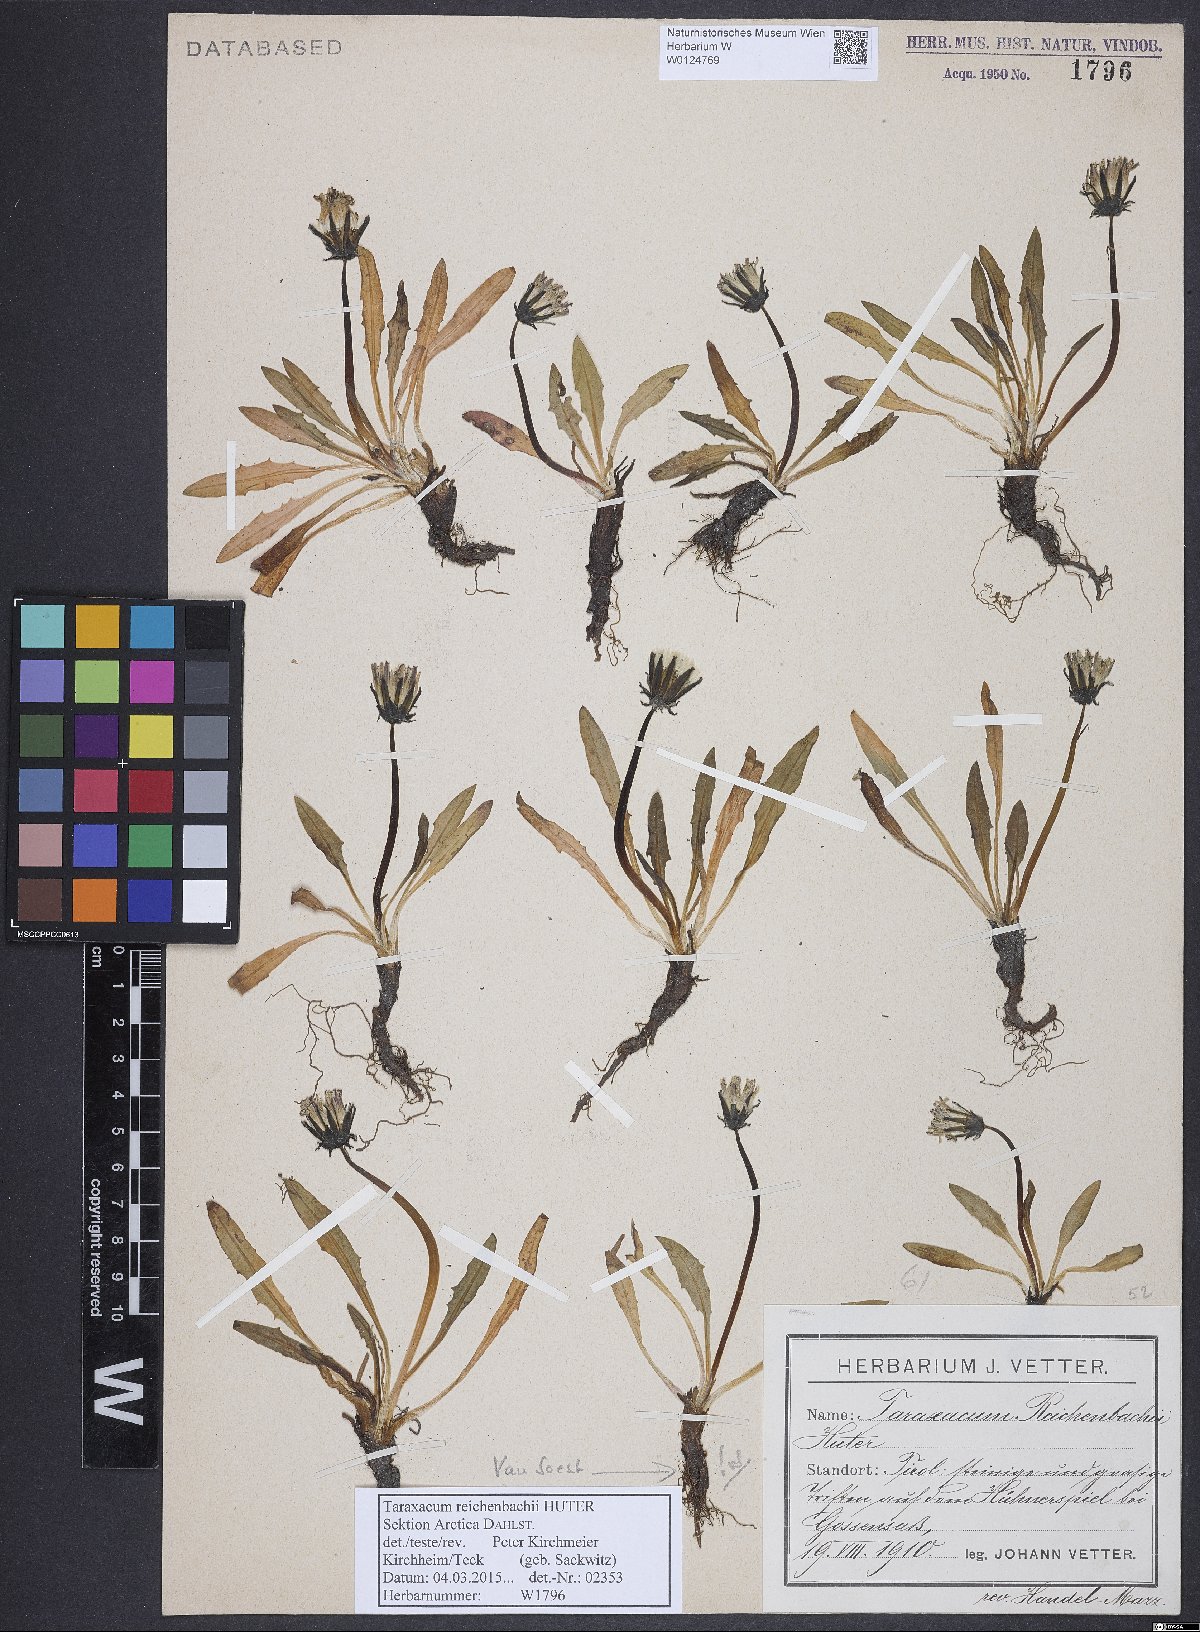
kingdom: Plantae
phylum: Tracheophyta
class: Magnoliopsida
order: Asterales
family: Asteraceae
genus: Taraxacum
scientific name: Taraxacum reichenbachii
